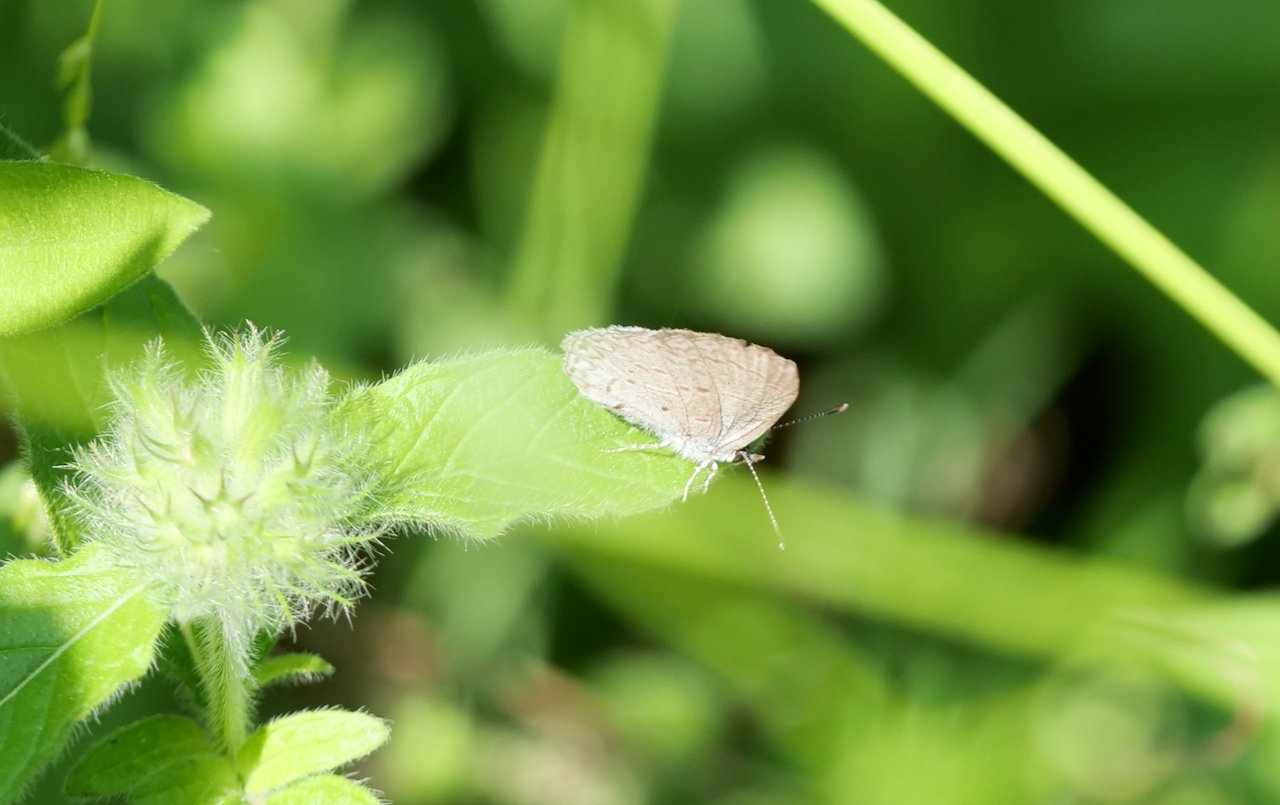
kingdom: Animalia
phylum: Arthropoda
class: Insecta
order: Lepidoptera
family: Lycaenidae
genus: Celastrina
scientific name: Celastrina
